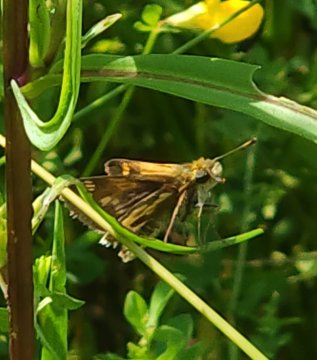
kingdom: Animalia
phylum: Arthropoda
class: Insecta
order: Lepidoptera
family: Hesperiidae
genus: Polites
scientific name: Polites coras
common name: Peck's Skipper
